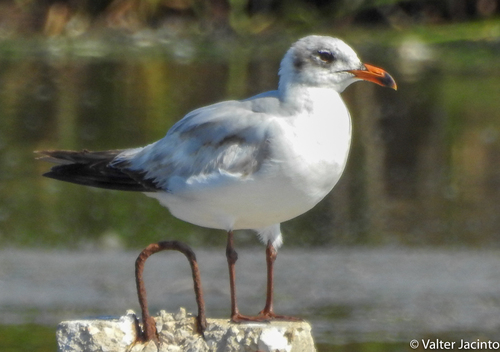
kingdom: Animalia
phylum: Chordata
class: Aves
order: Charadriiformes
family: Laridae
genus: Ichthyaetus
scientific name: Ichthyaetus melanocephalus
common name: Mediterranean gull
